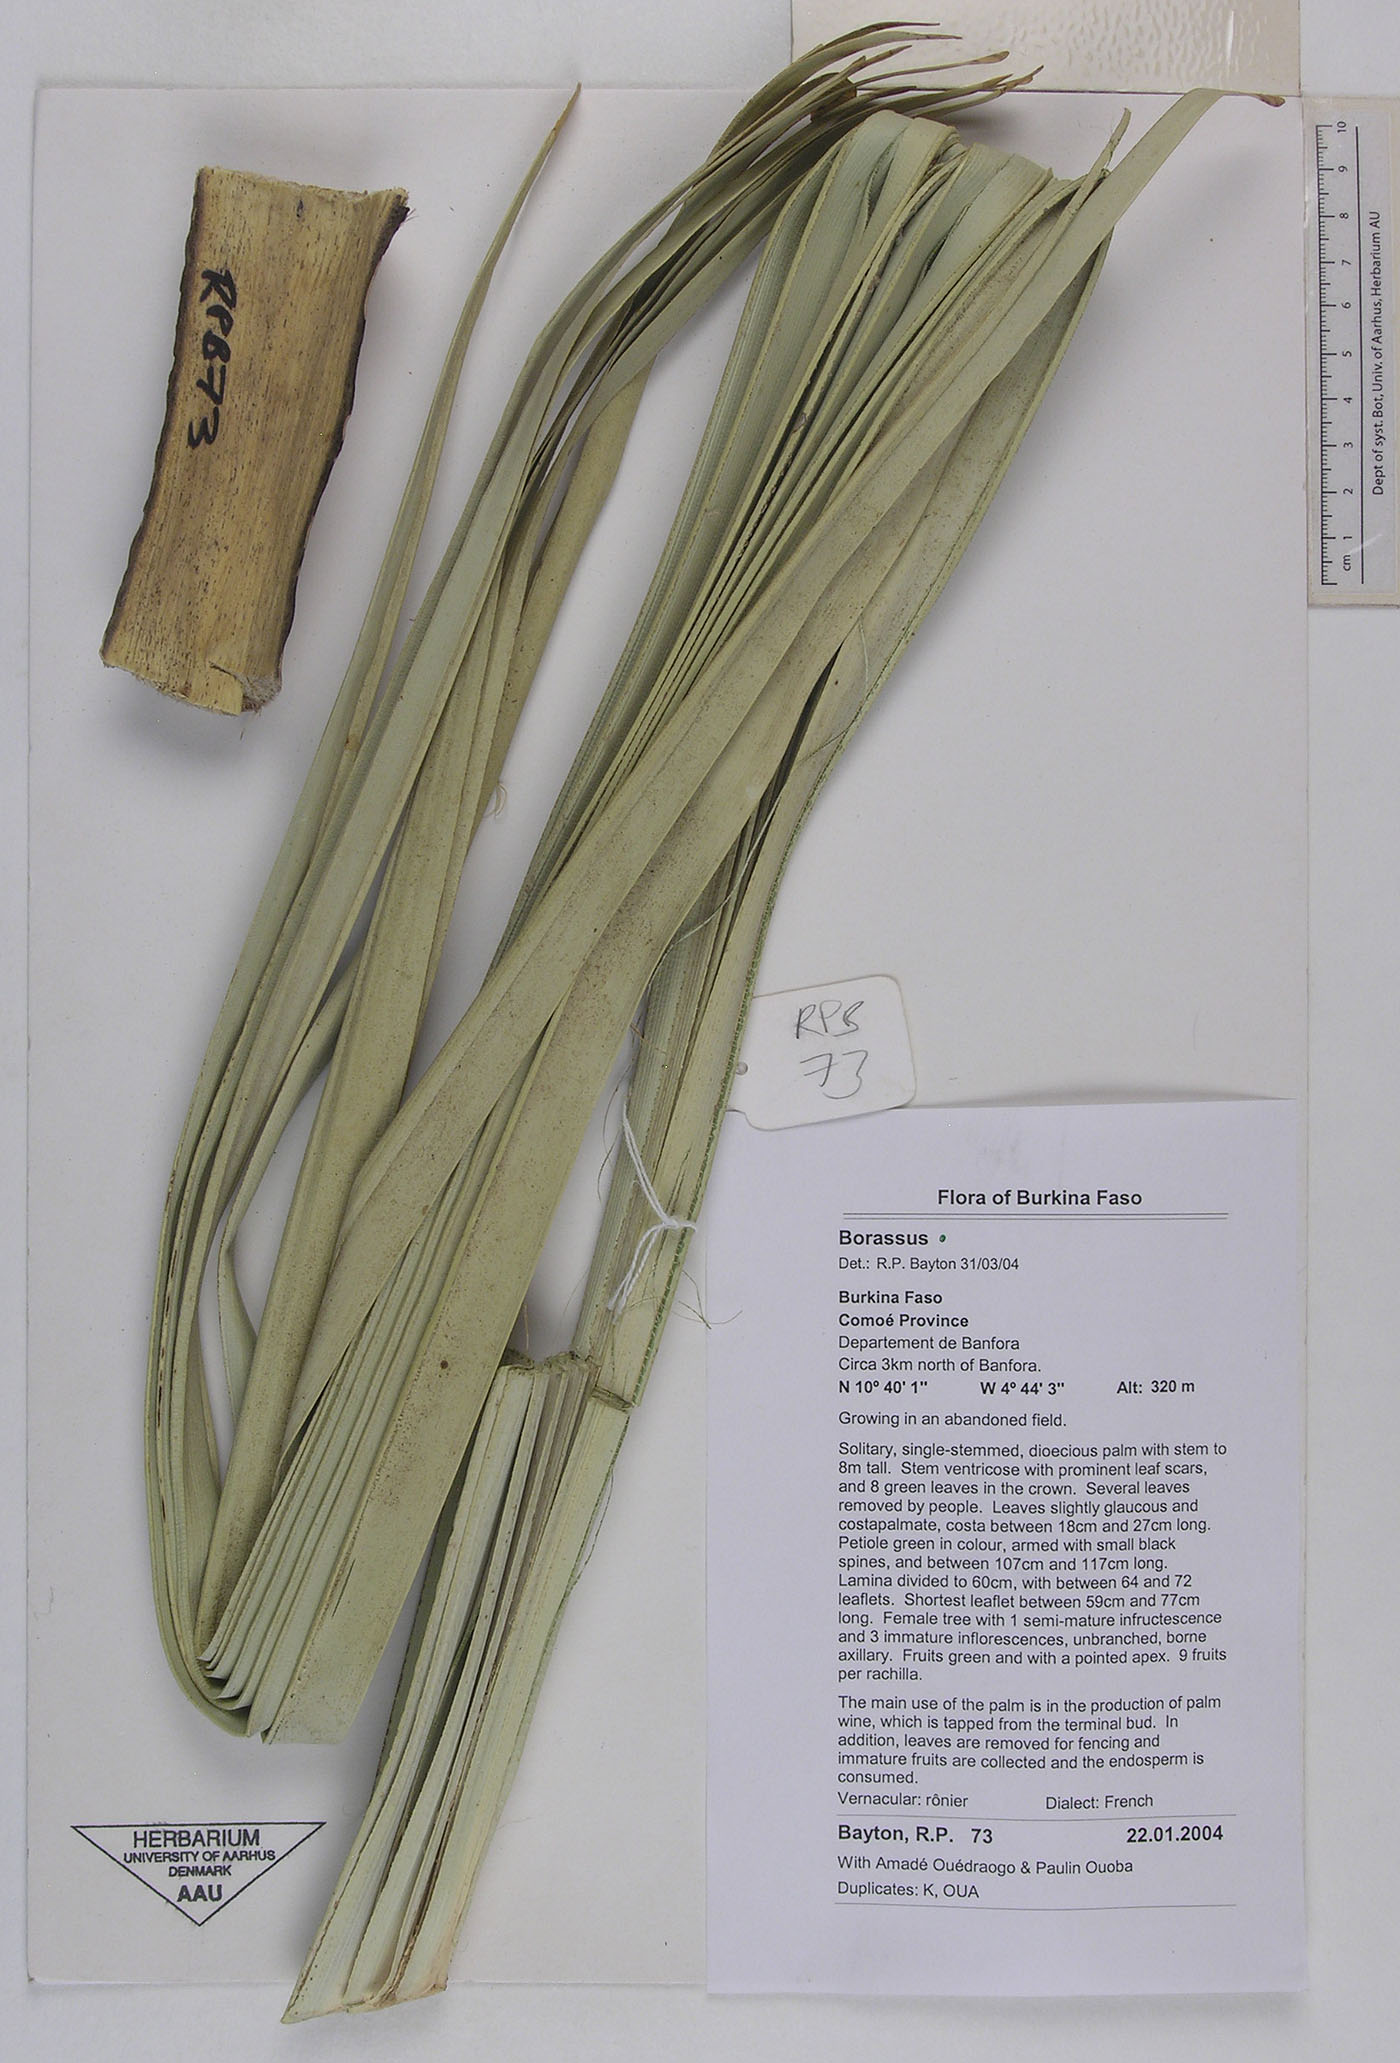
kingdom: Plantae
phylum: Tracheophyta
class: Liliopsida
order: Arecales
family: Arecaceae
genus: Borassus
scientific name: Borassus
